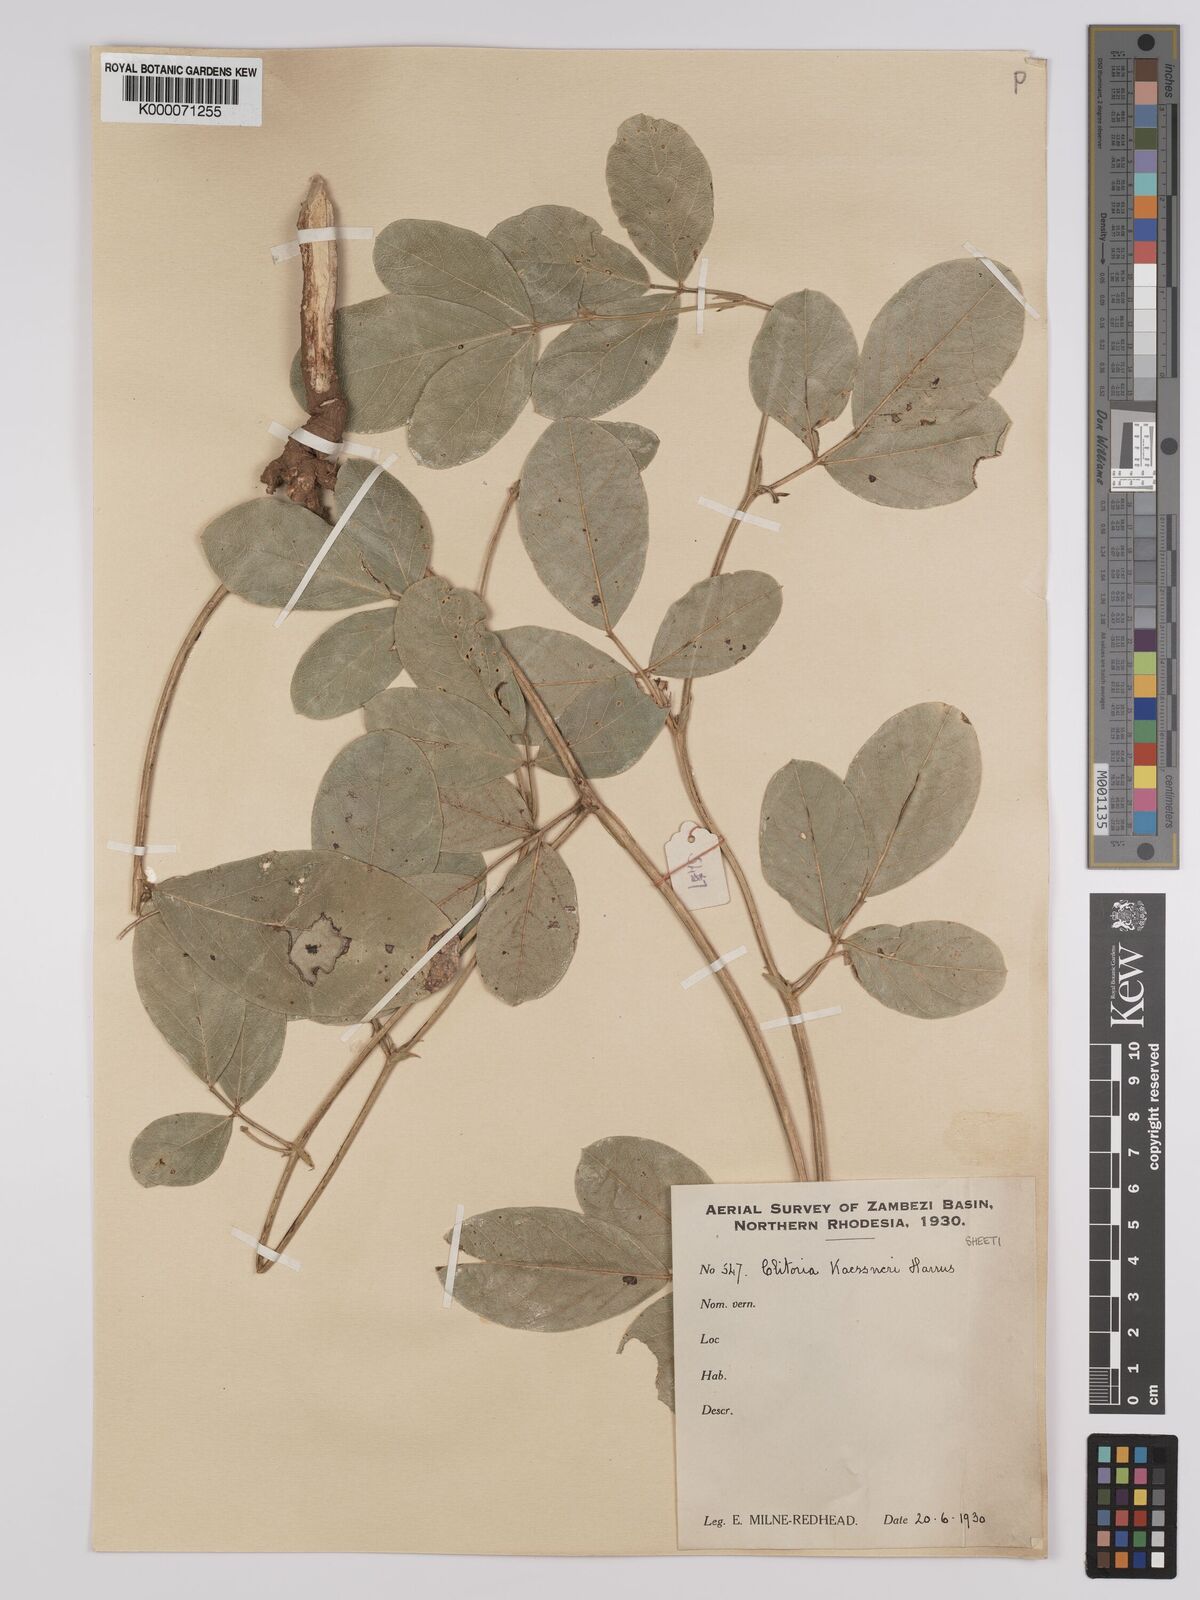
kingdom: Plantae
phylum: Tracheophyta
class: Magnoliopsida
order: Fabales
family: Fabaceae
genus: Clitoria
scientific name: Clitoria kaessneri
